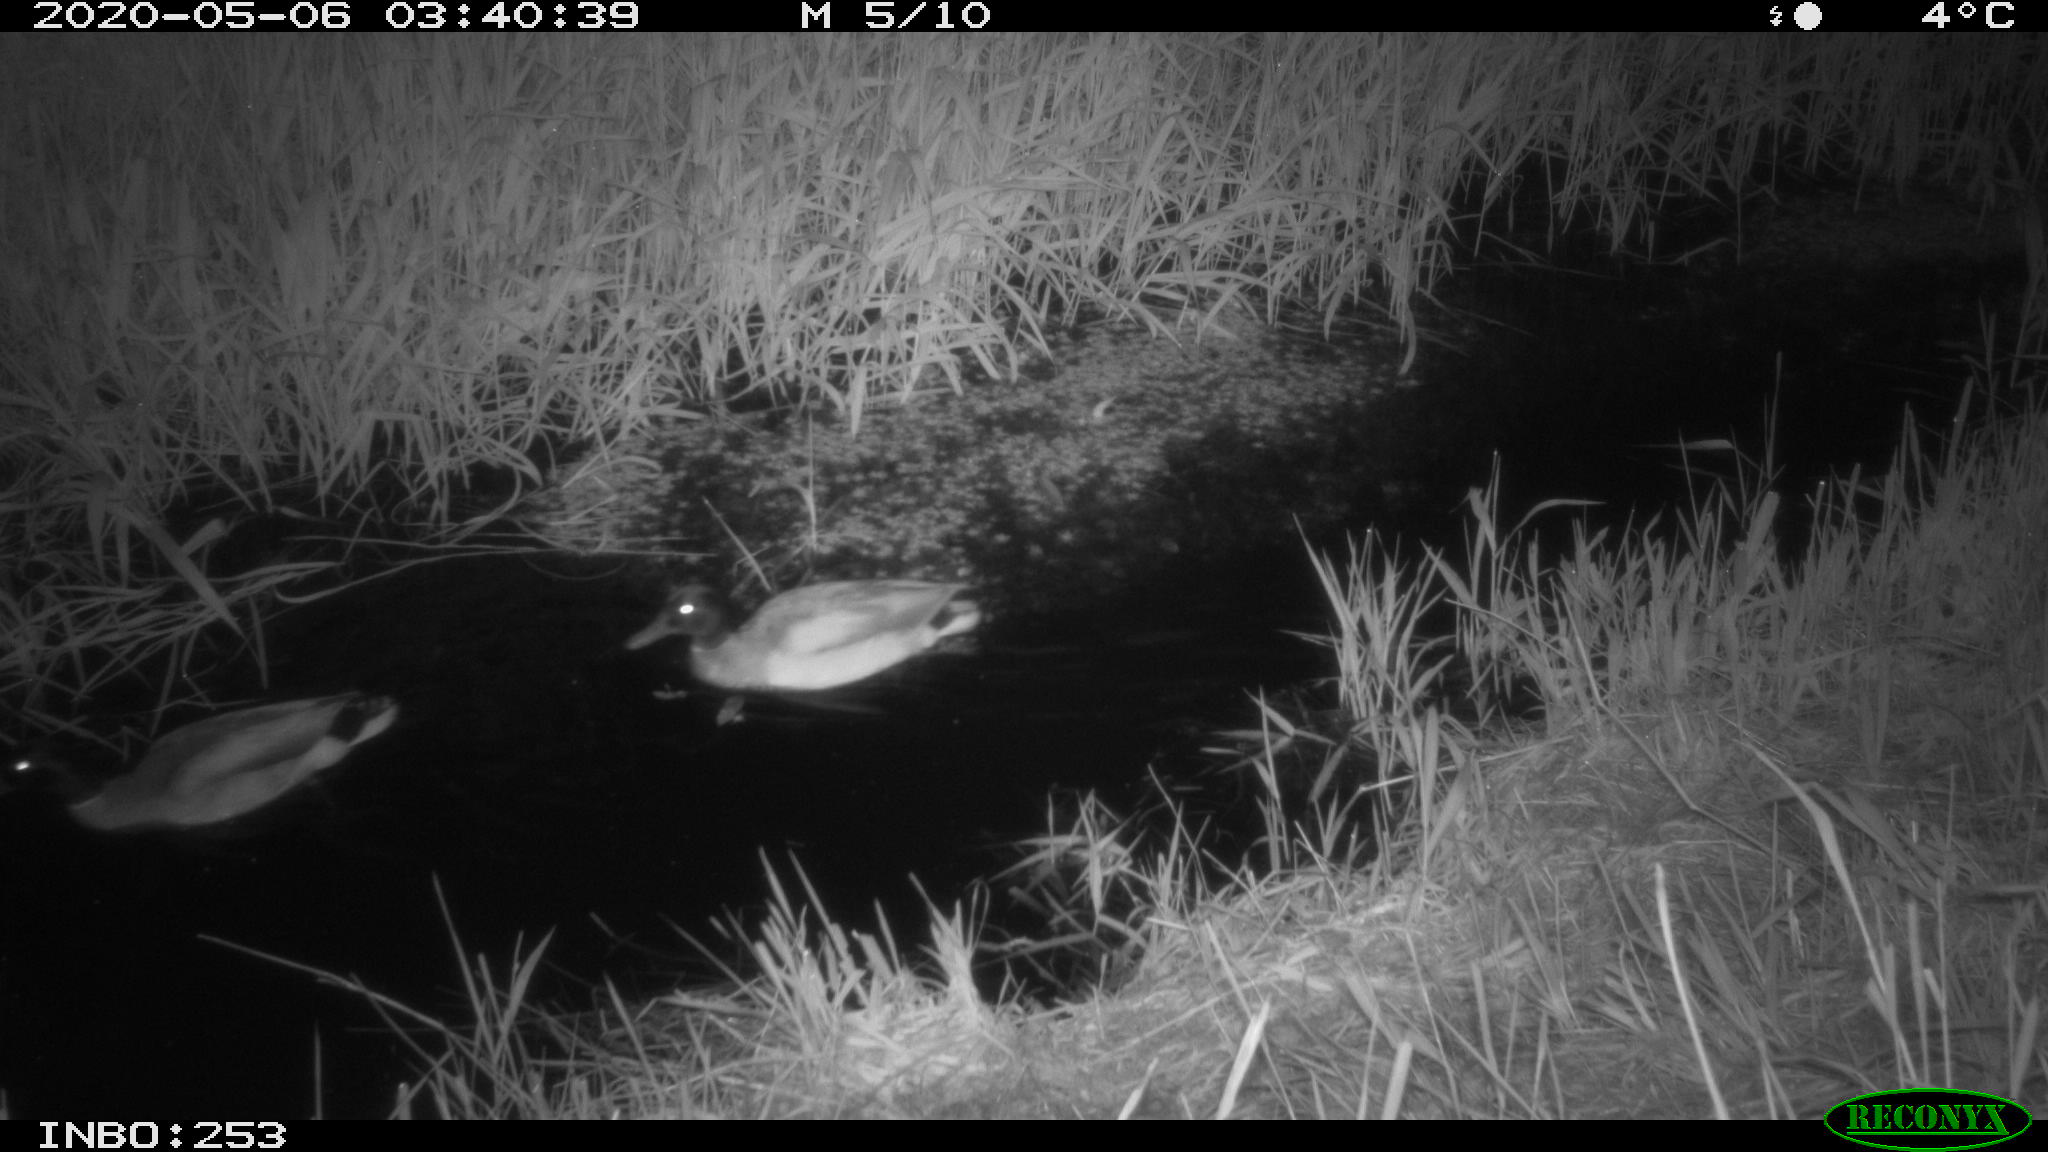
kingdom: Animalia
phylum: Chordata
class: Aves
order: Anseriformes
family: Anatidae
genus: Anas
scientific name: Anas platyrhynchos
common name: Mallard
